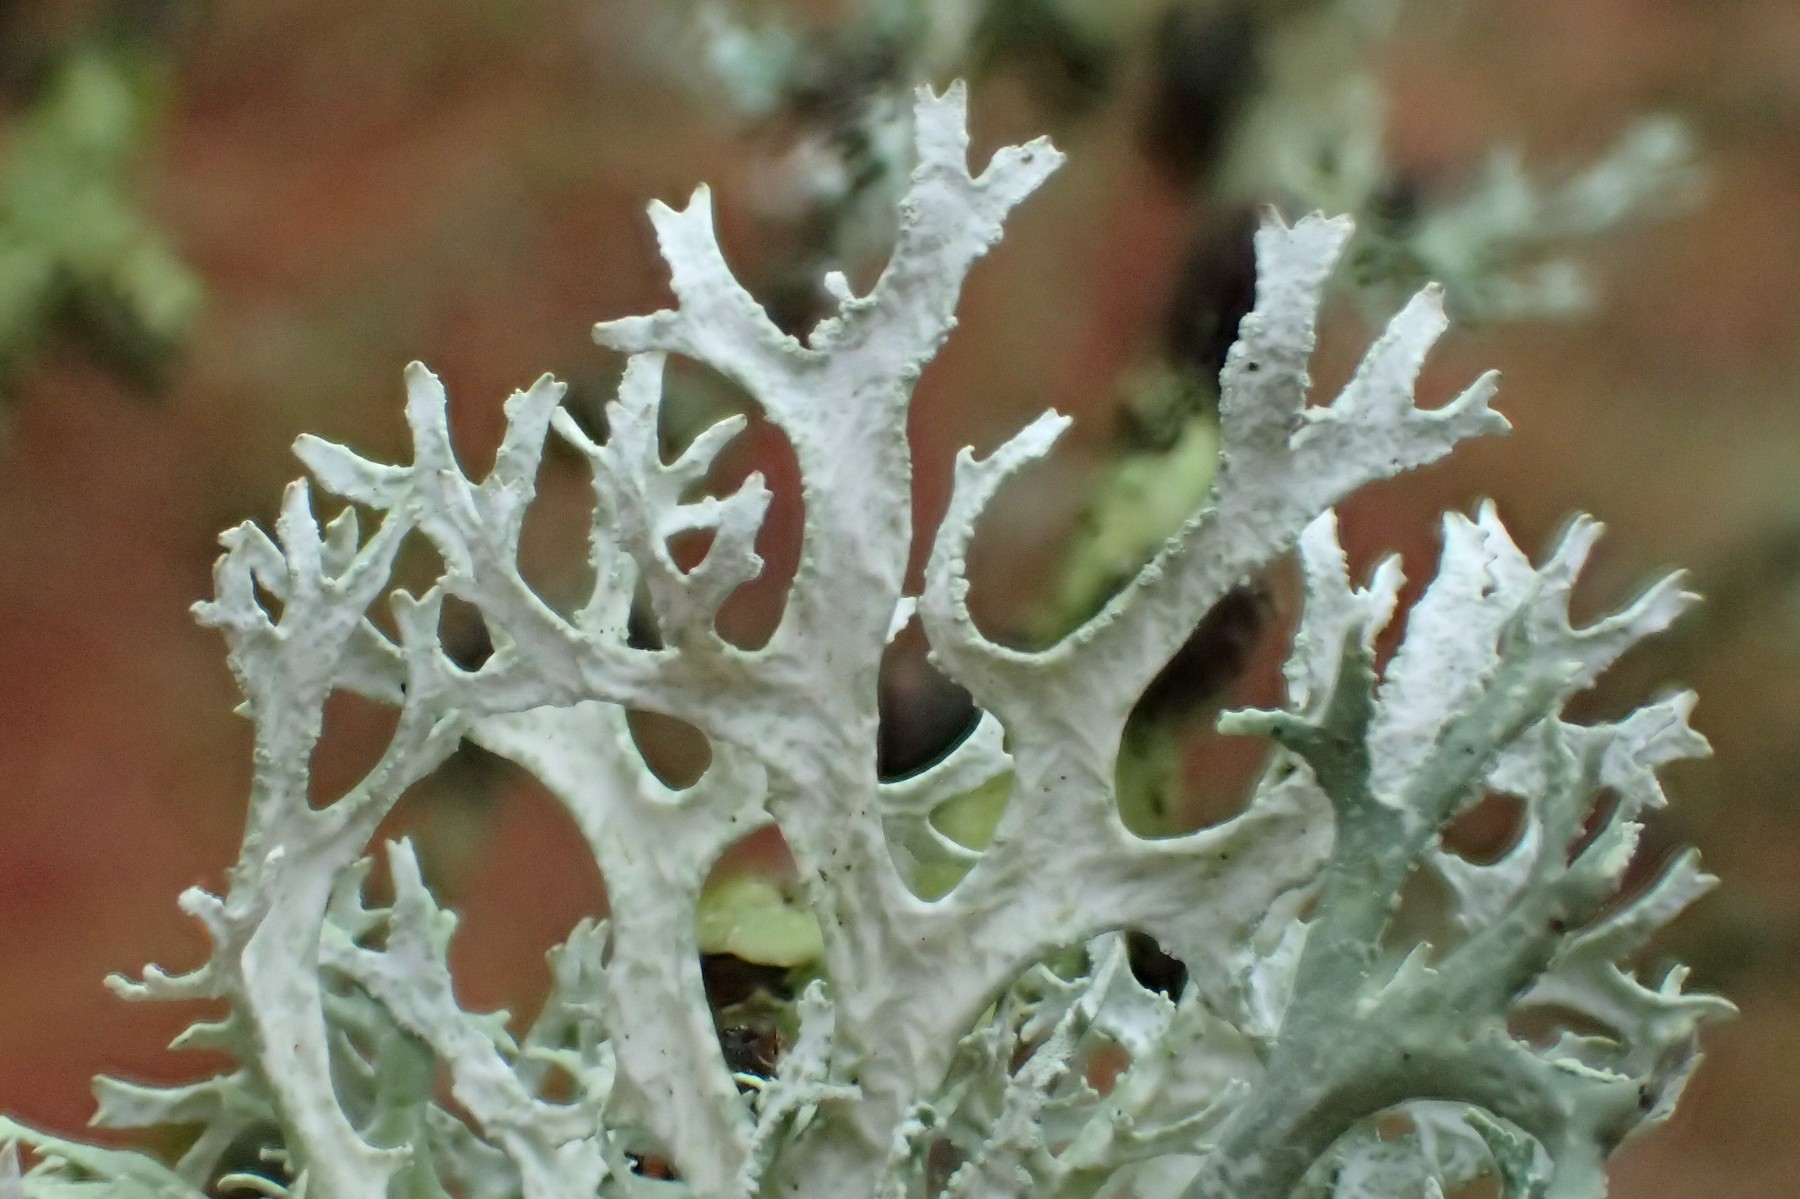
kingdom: Fungi
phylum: Ascomycota
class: Lecanoromycetes
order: Lecanorales
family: Parmeliaceae
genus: Evernia
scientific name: Evernia prunastri
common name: almindelig slåenlav
